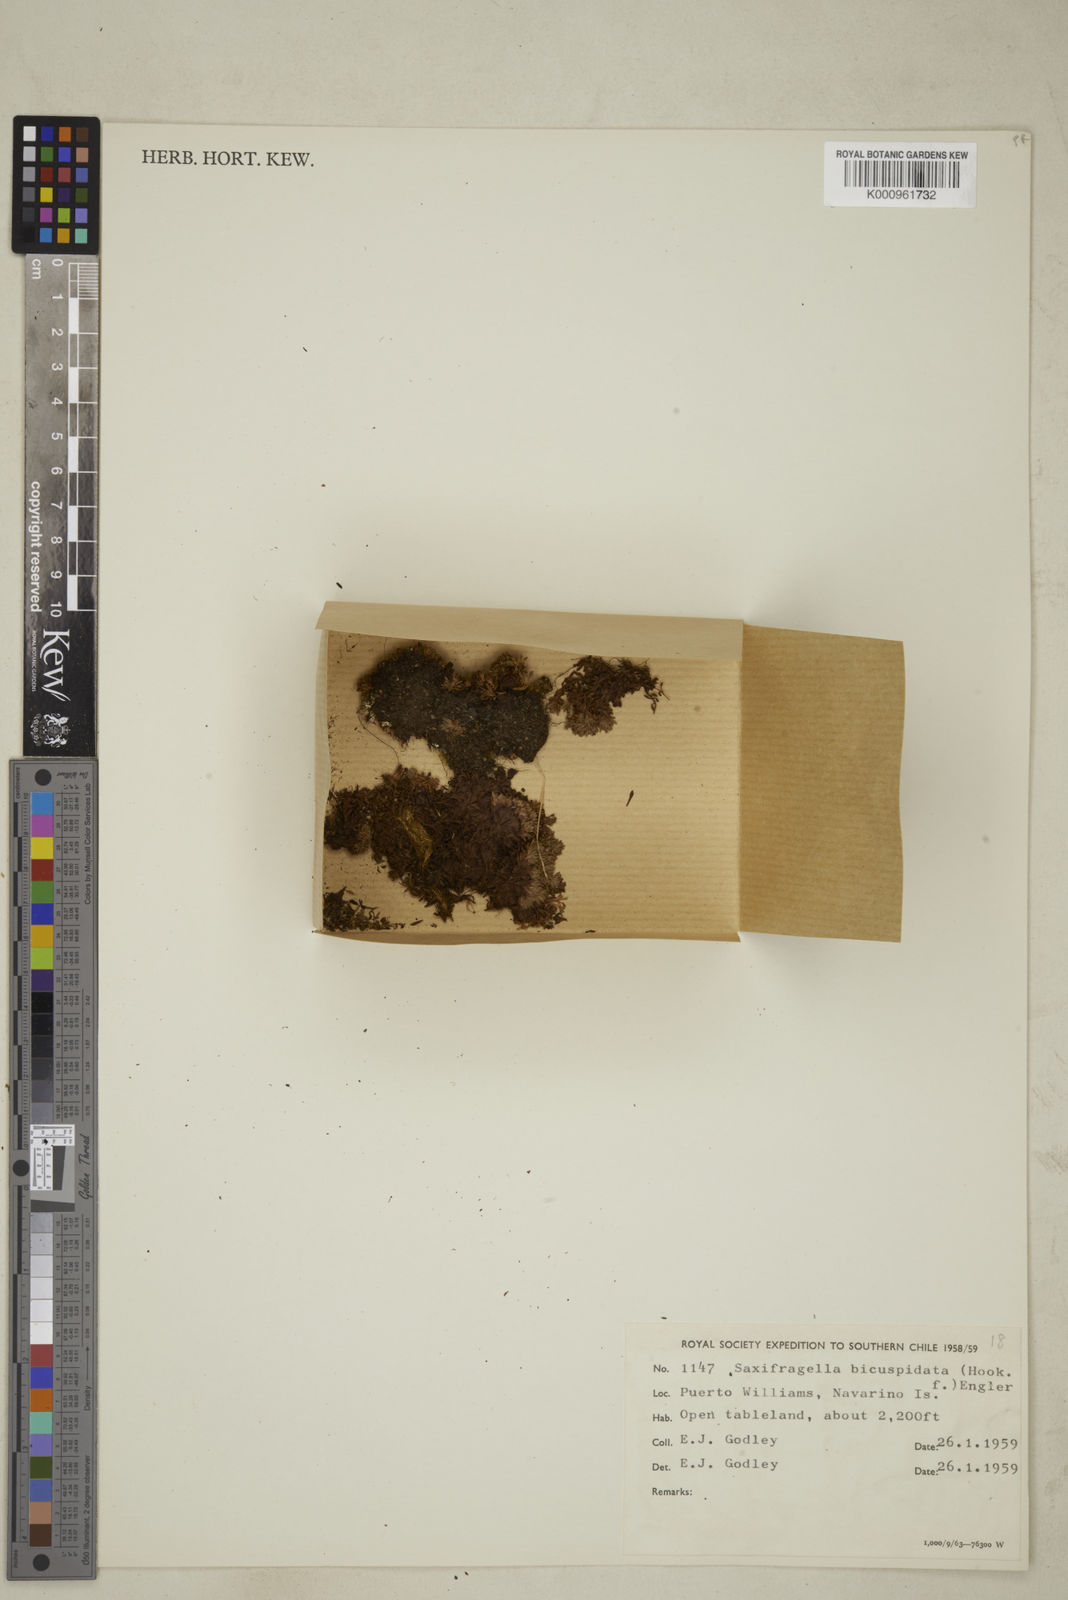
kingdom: Plantae
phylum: Tracheophyta
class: Magnoliopsida
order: Saxifragales
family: Saxifragaceae
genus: Saxifraga
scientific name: Saxifraga bicuspidata
